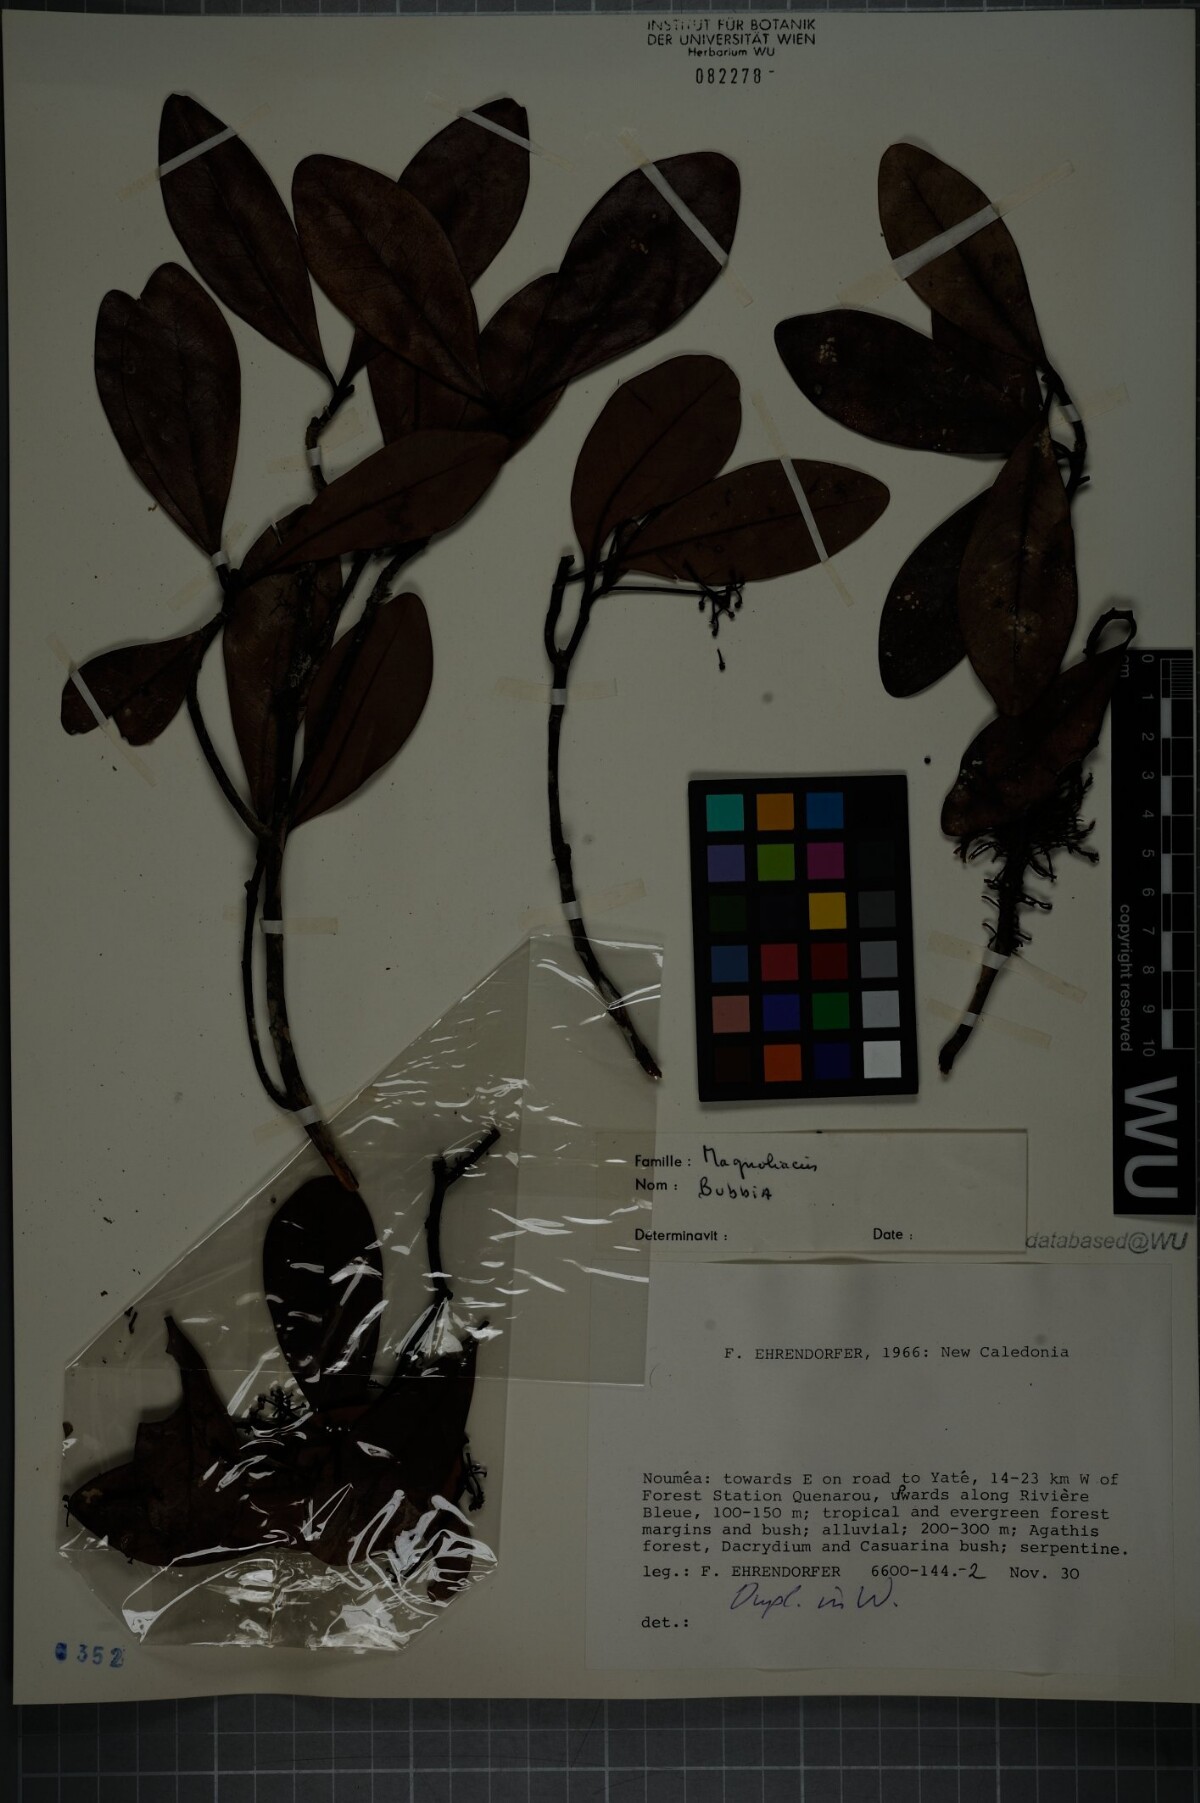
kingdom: Plantae
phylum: Tracheophyta
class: Magnoliopsida
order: Canellales
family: Winteraceae
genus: Zygogynum
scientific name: Zygogynum
